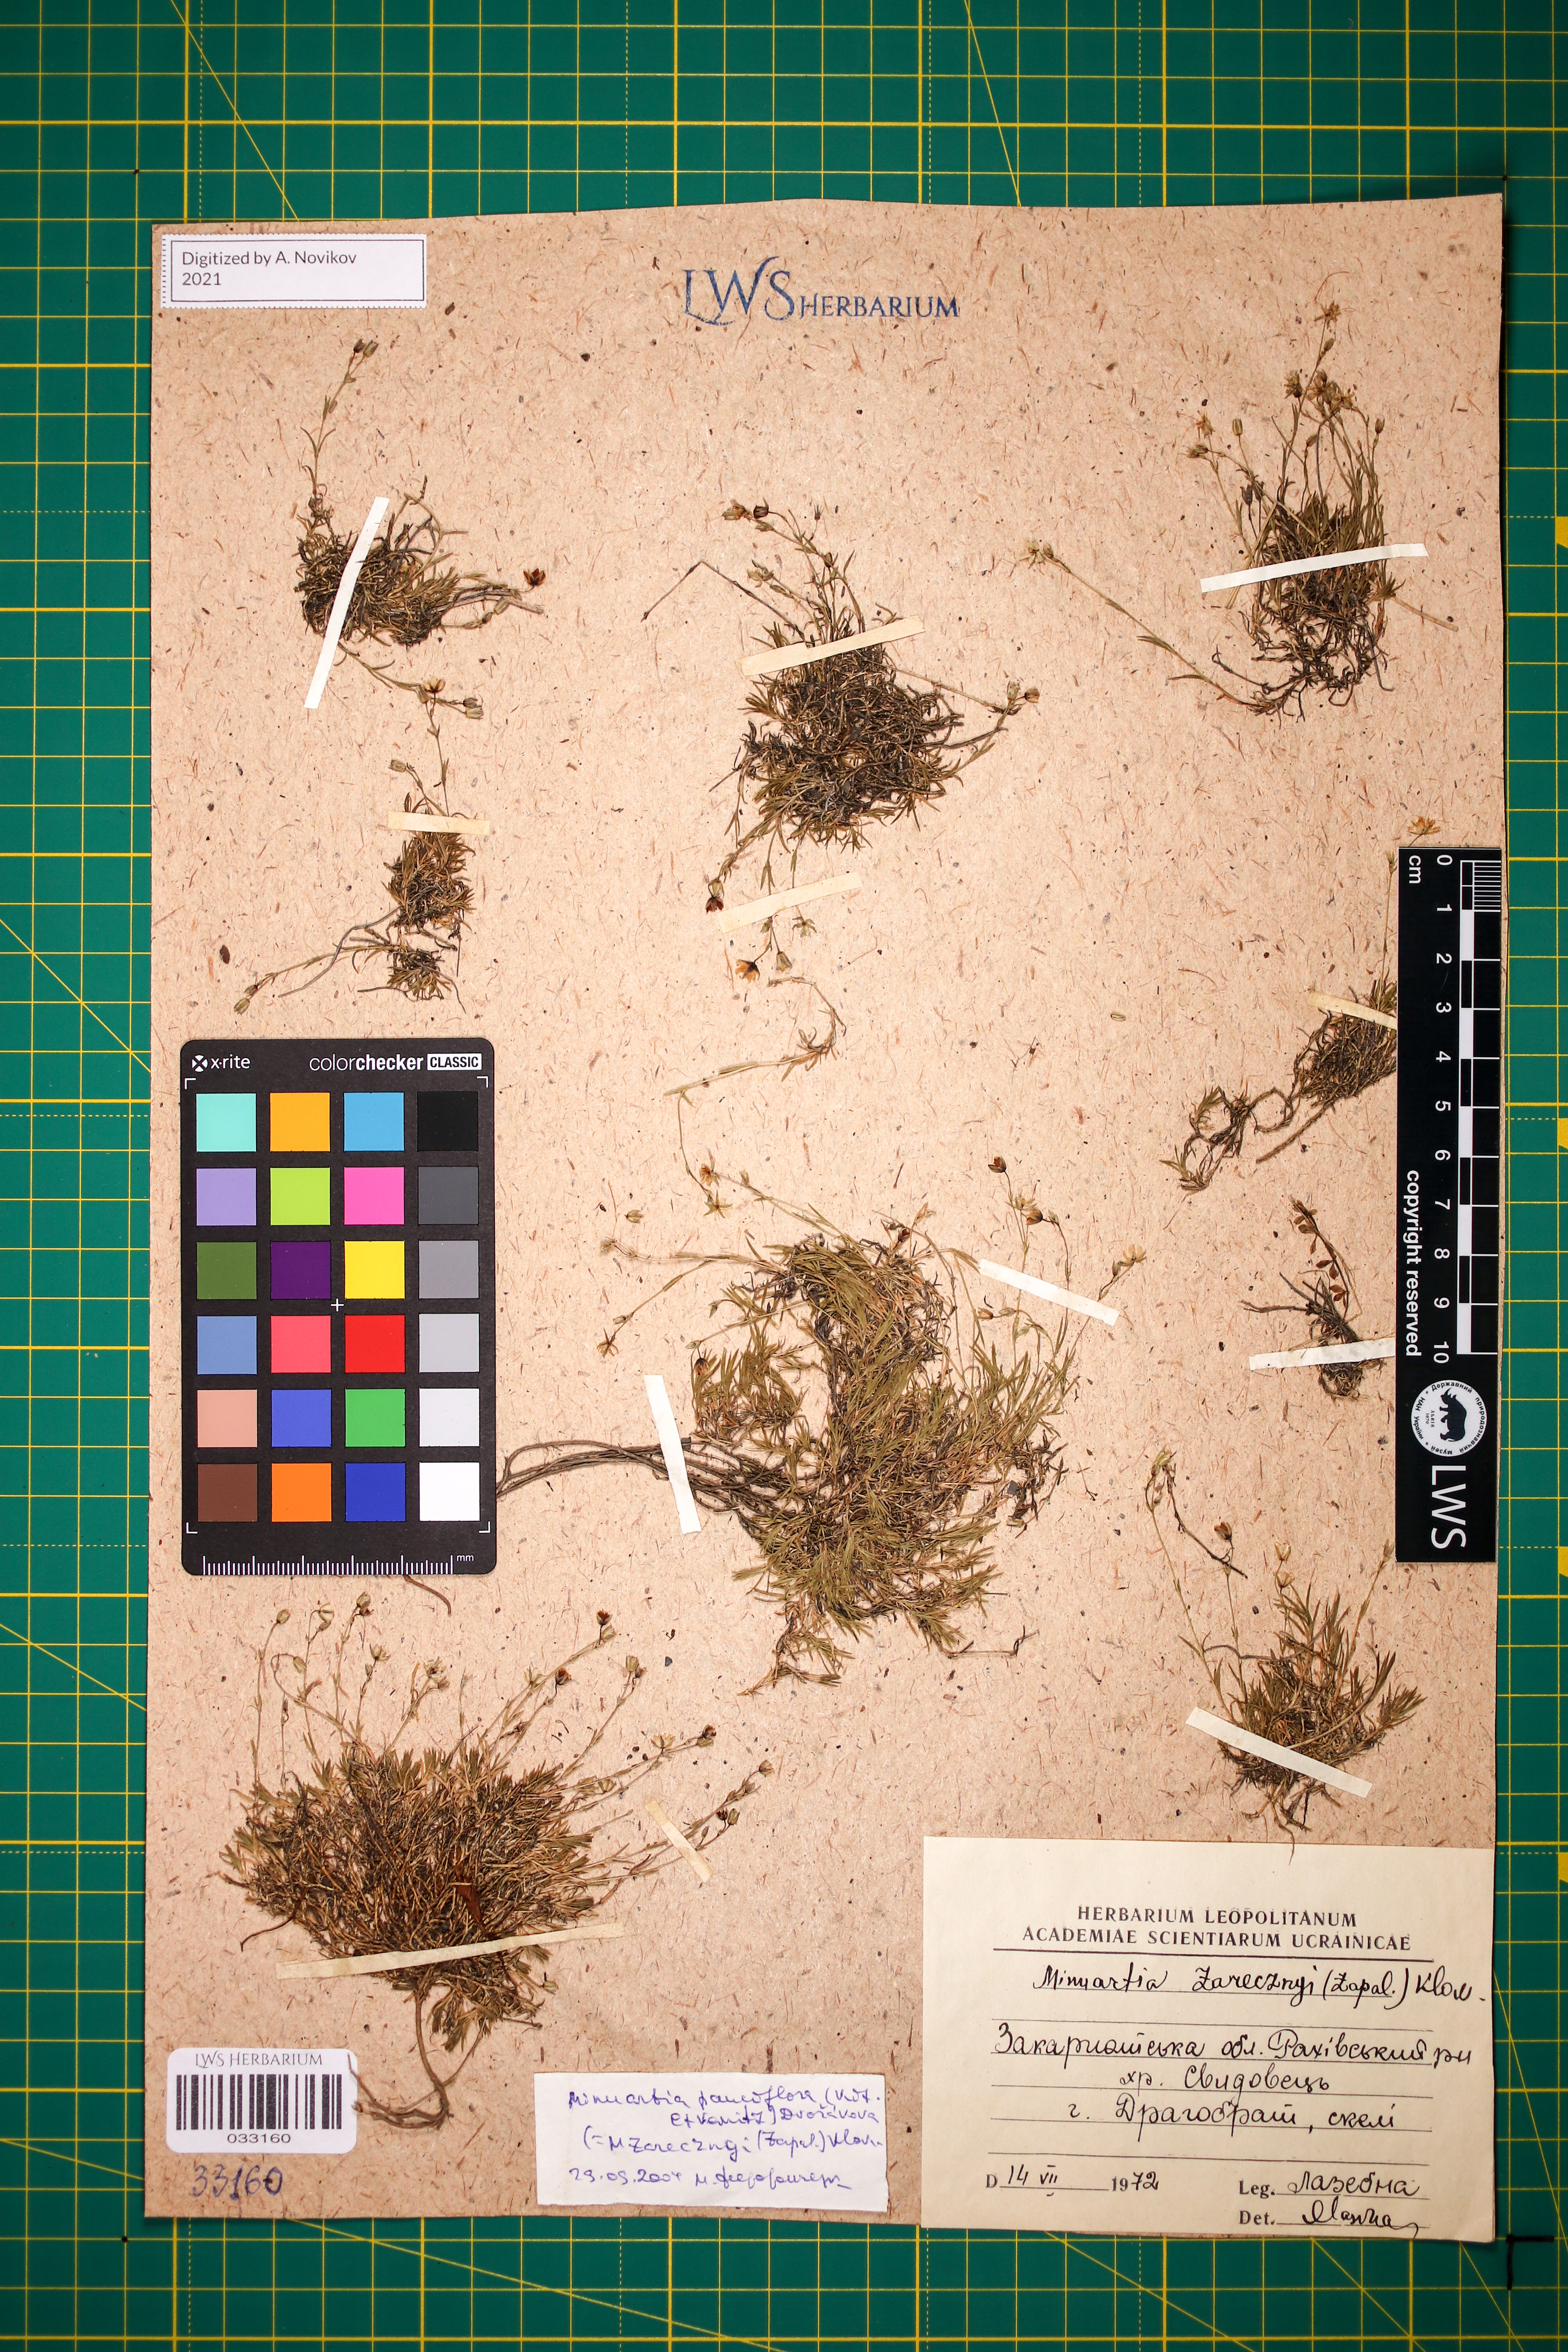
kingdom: Plantae
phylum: Tracheophyta
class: Magnoliopsida
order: Caryophyllales
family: Caryophyllaceae
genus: Minuartia
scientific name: Minuartia pauciflora
